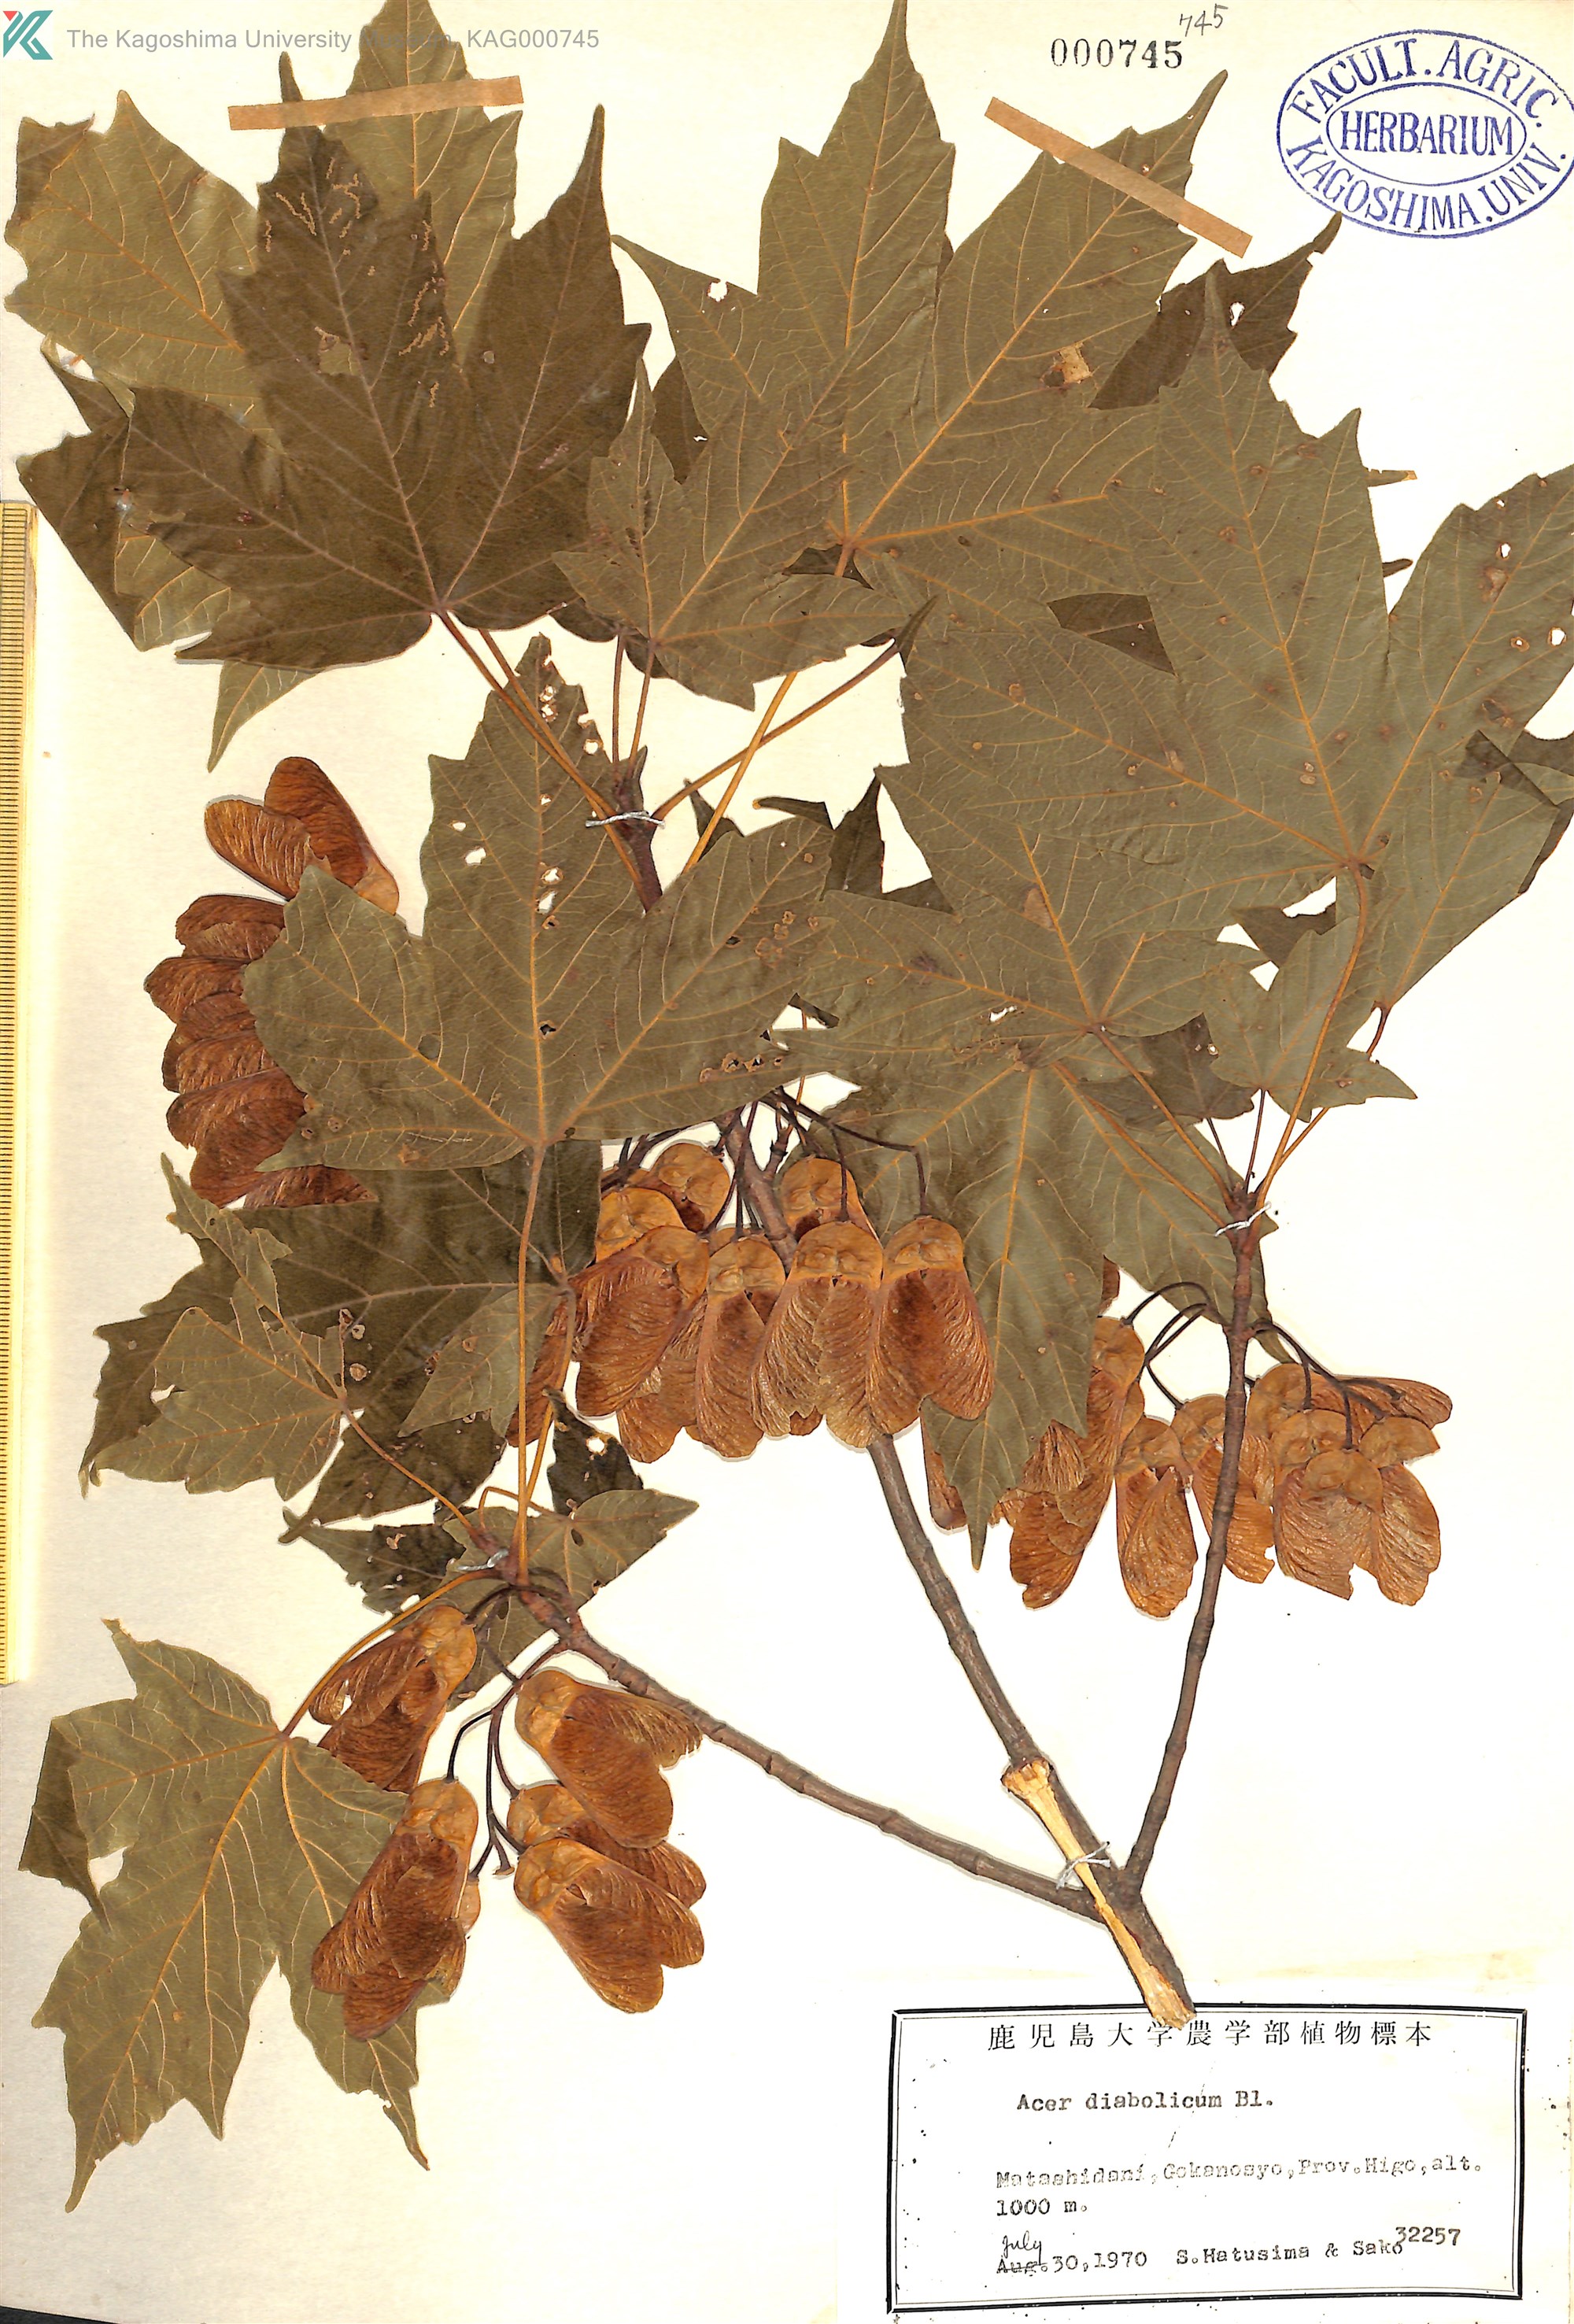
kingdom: Plantae
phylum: Tracheophyta
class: Magnoliopsida
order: Sapindales
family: Sapindaceae
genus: Acer
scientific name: Acer diabolicum
